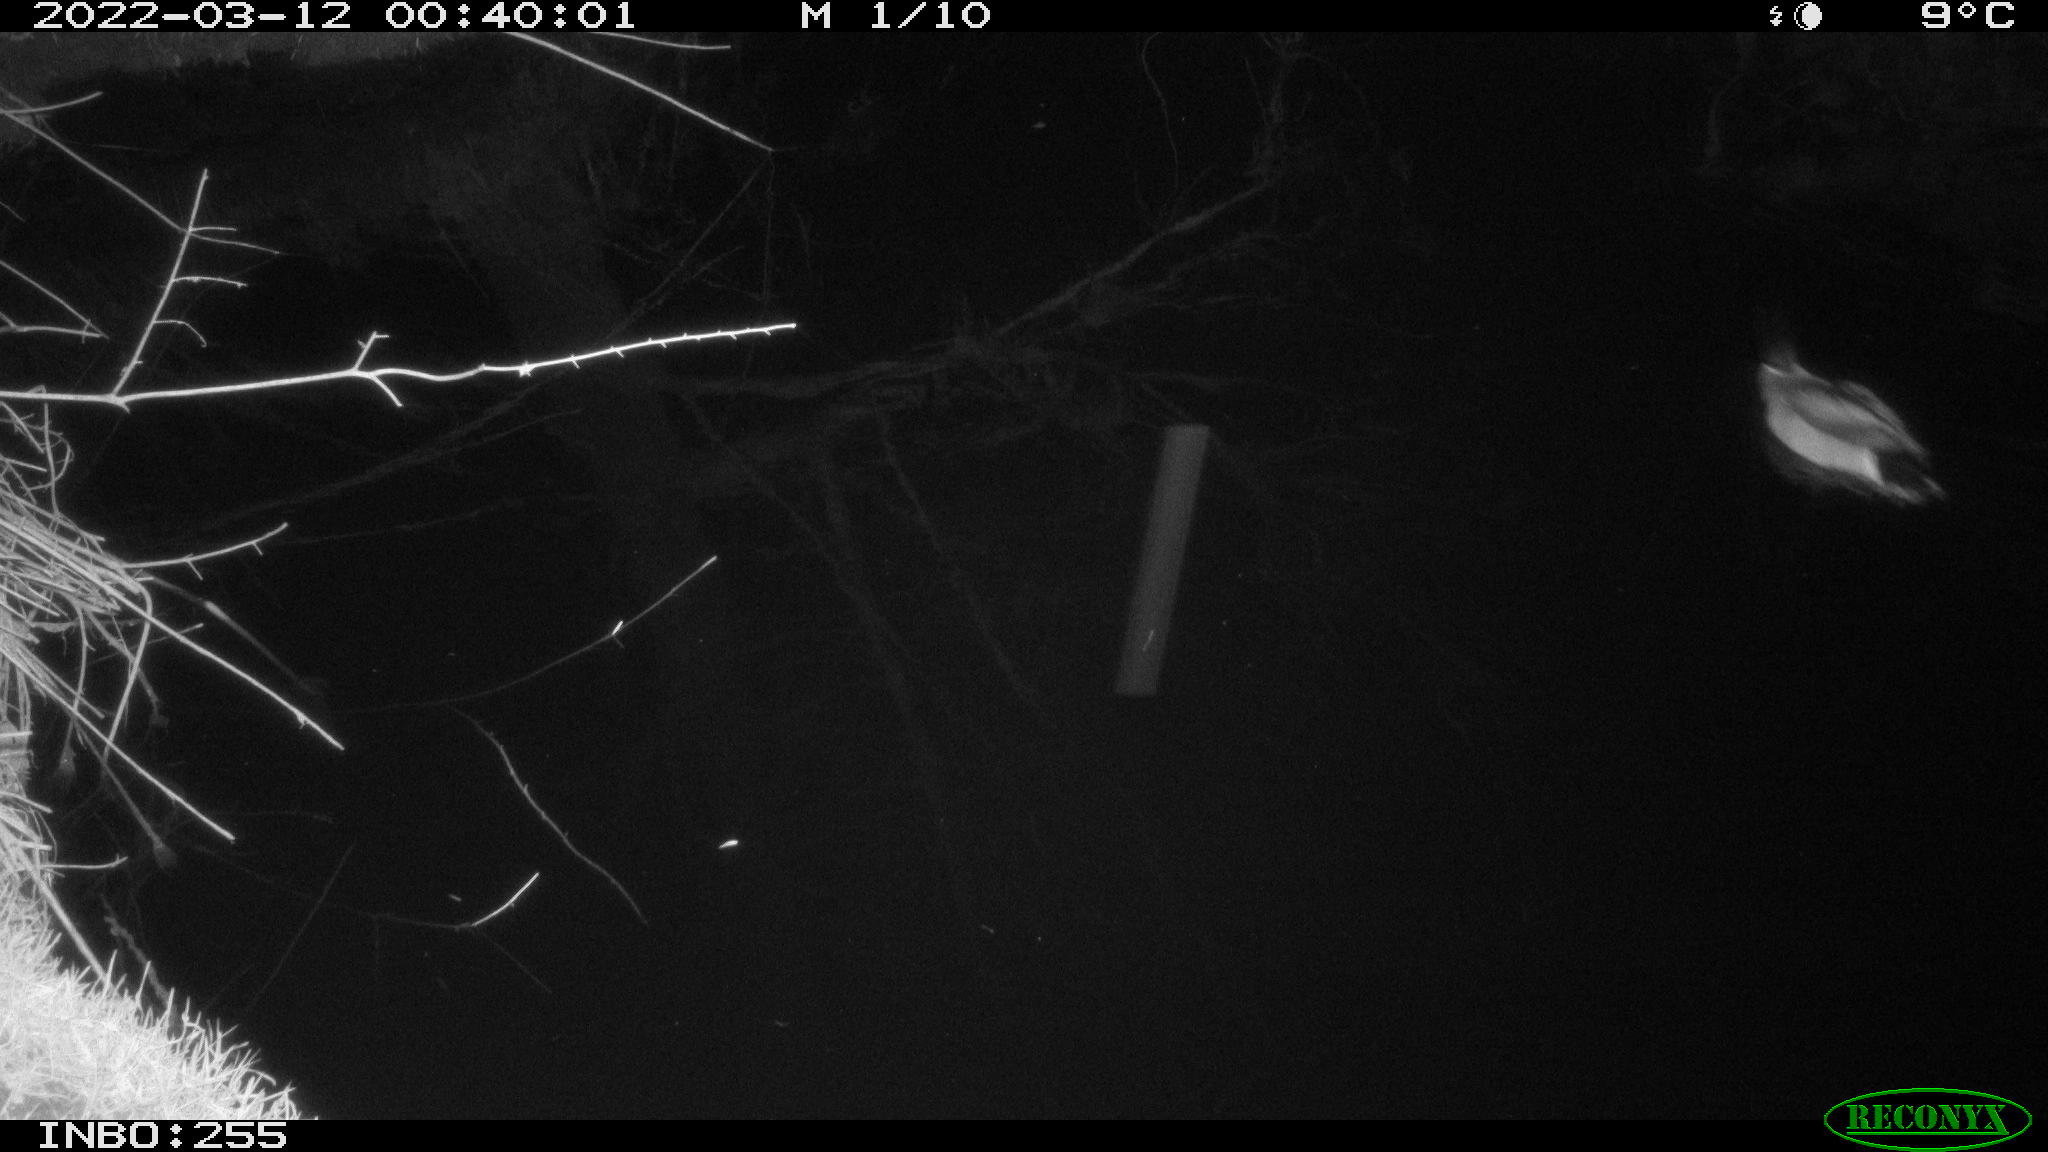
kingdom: Animalia
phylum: Chordata
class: Aves
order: Anseriformes
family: Anatidae
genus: Anas
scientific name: Anas platyrhynchos
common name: Mallard
